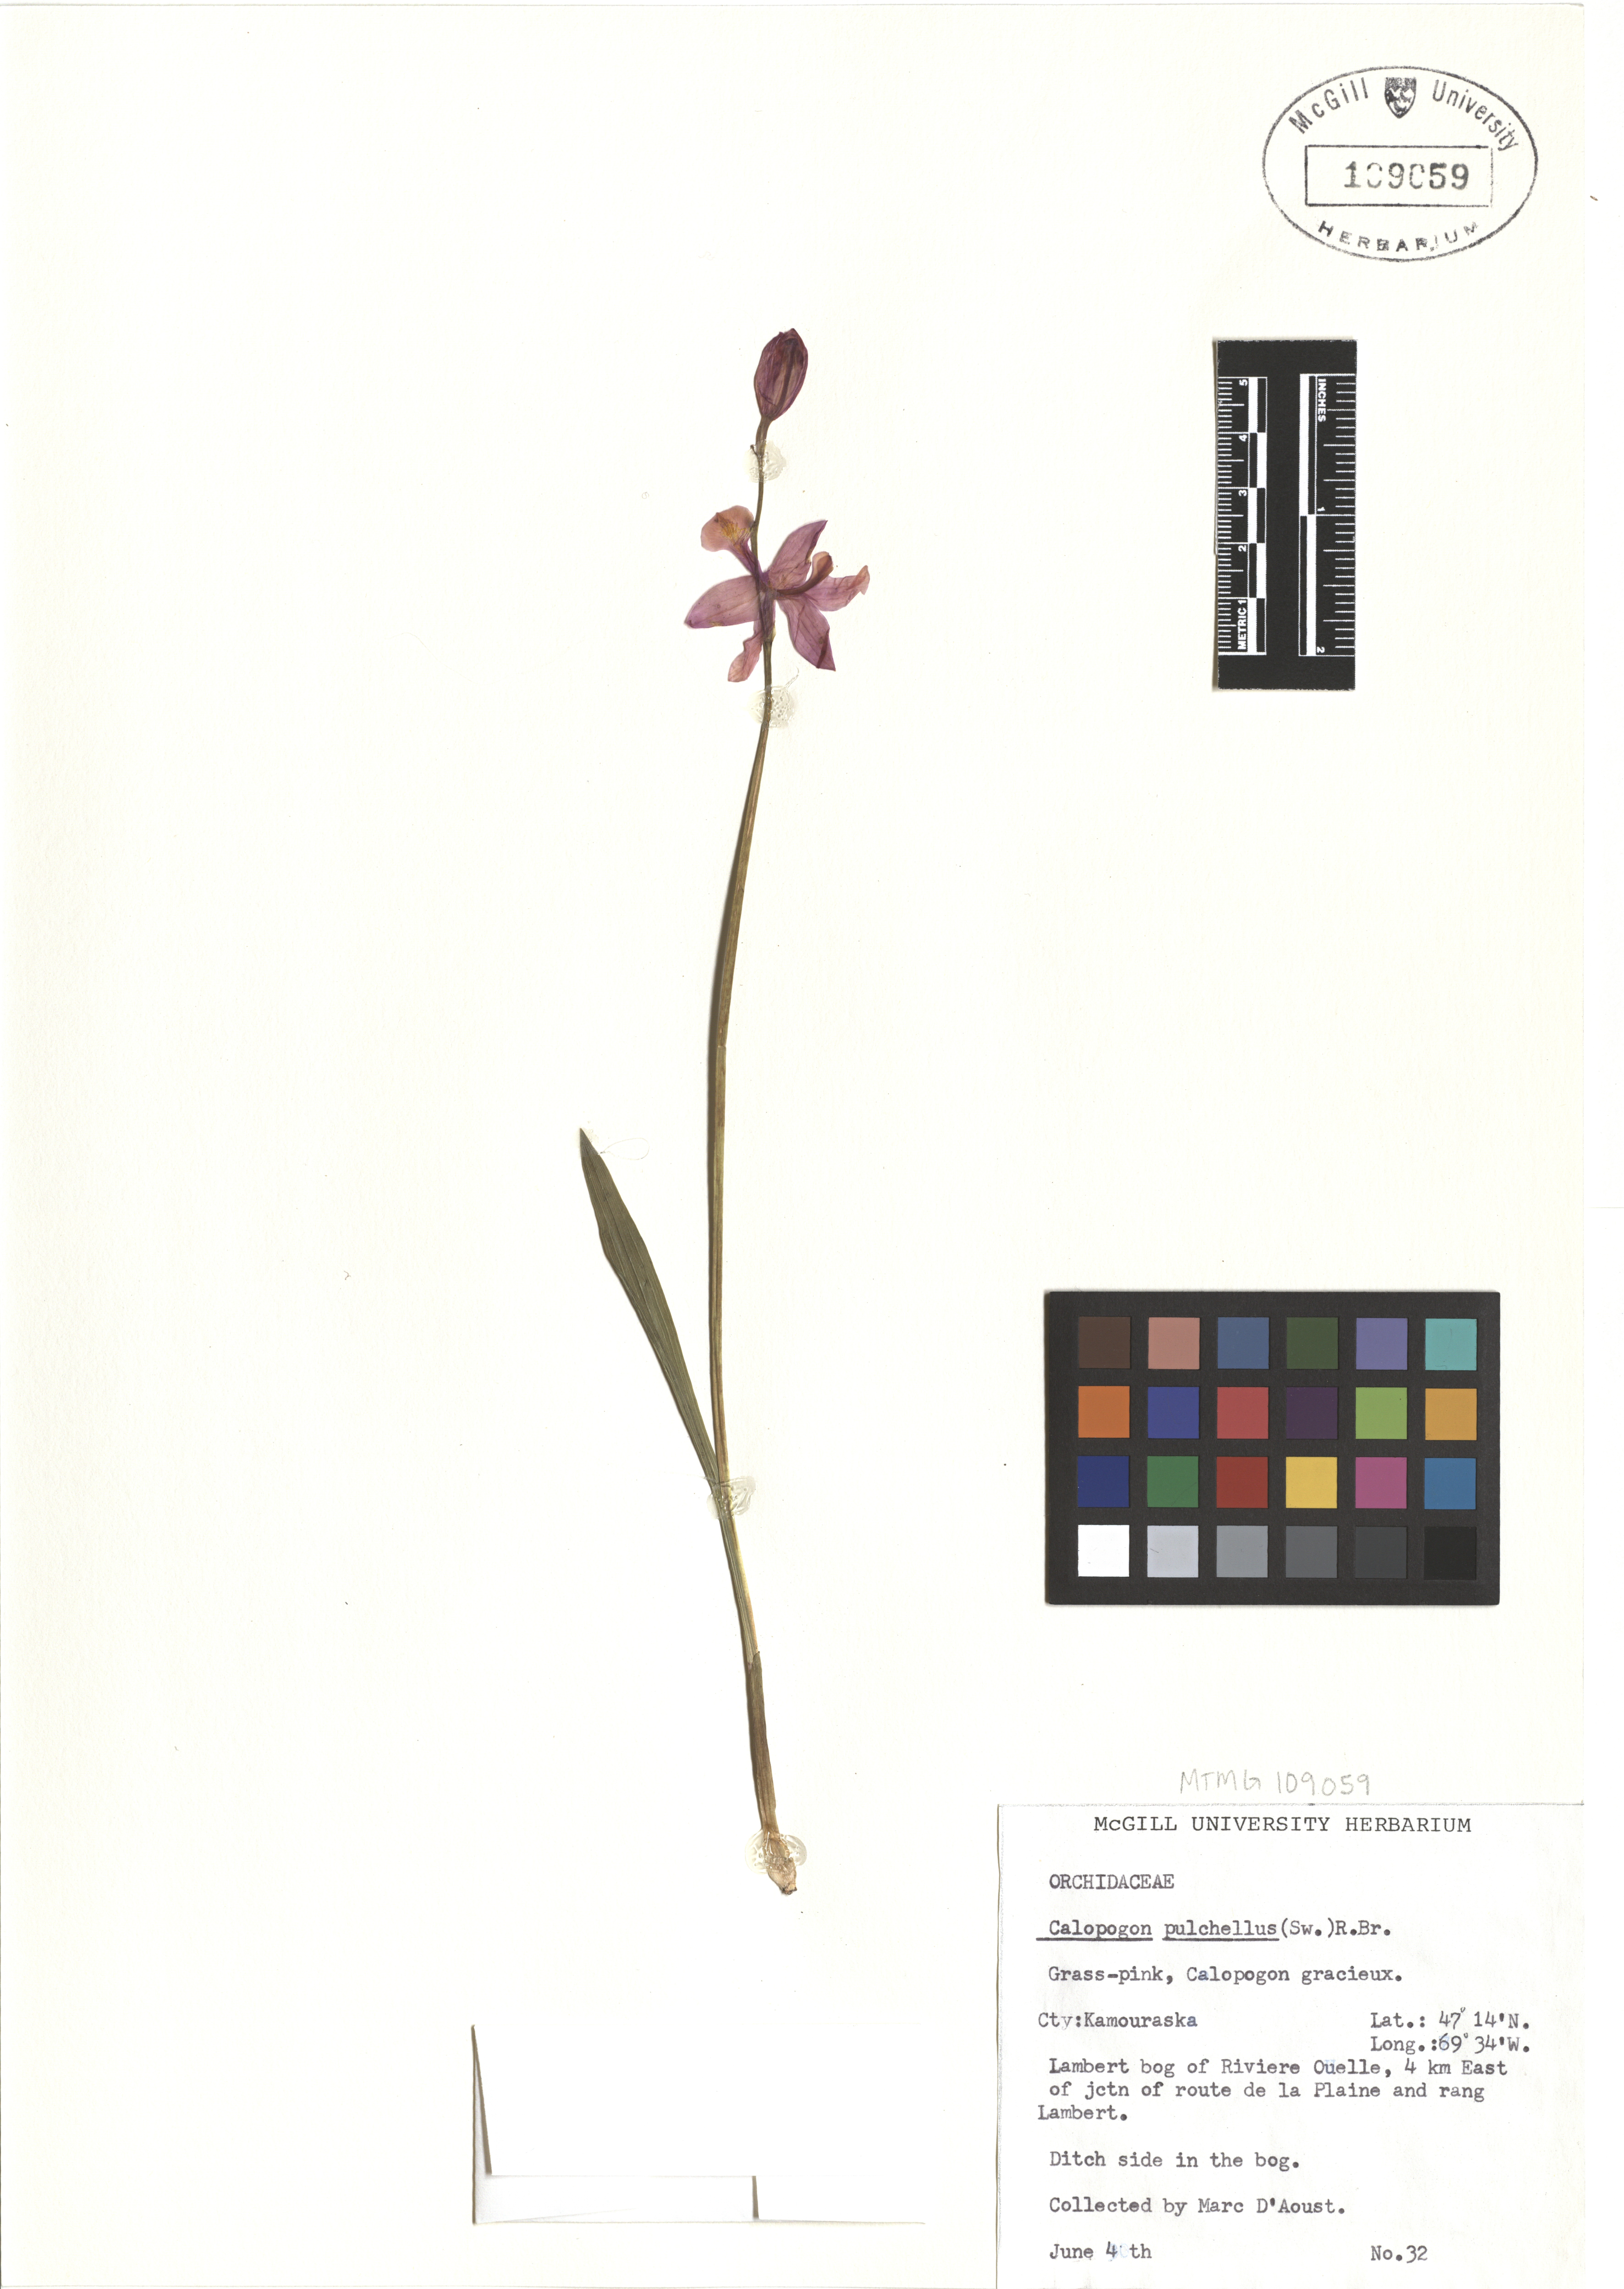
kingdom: Plantae
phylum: Tracheophyta
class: Liliopsida
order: Asparagales
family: Orchidaceae
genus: Calopogon
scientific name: Calopogon tuberosus
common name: Grass-pink
